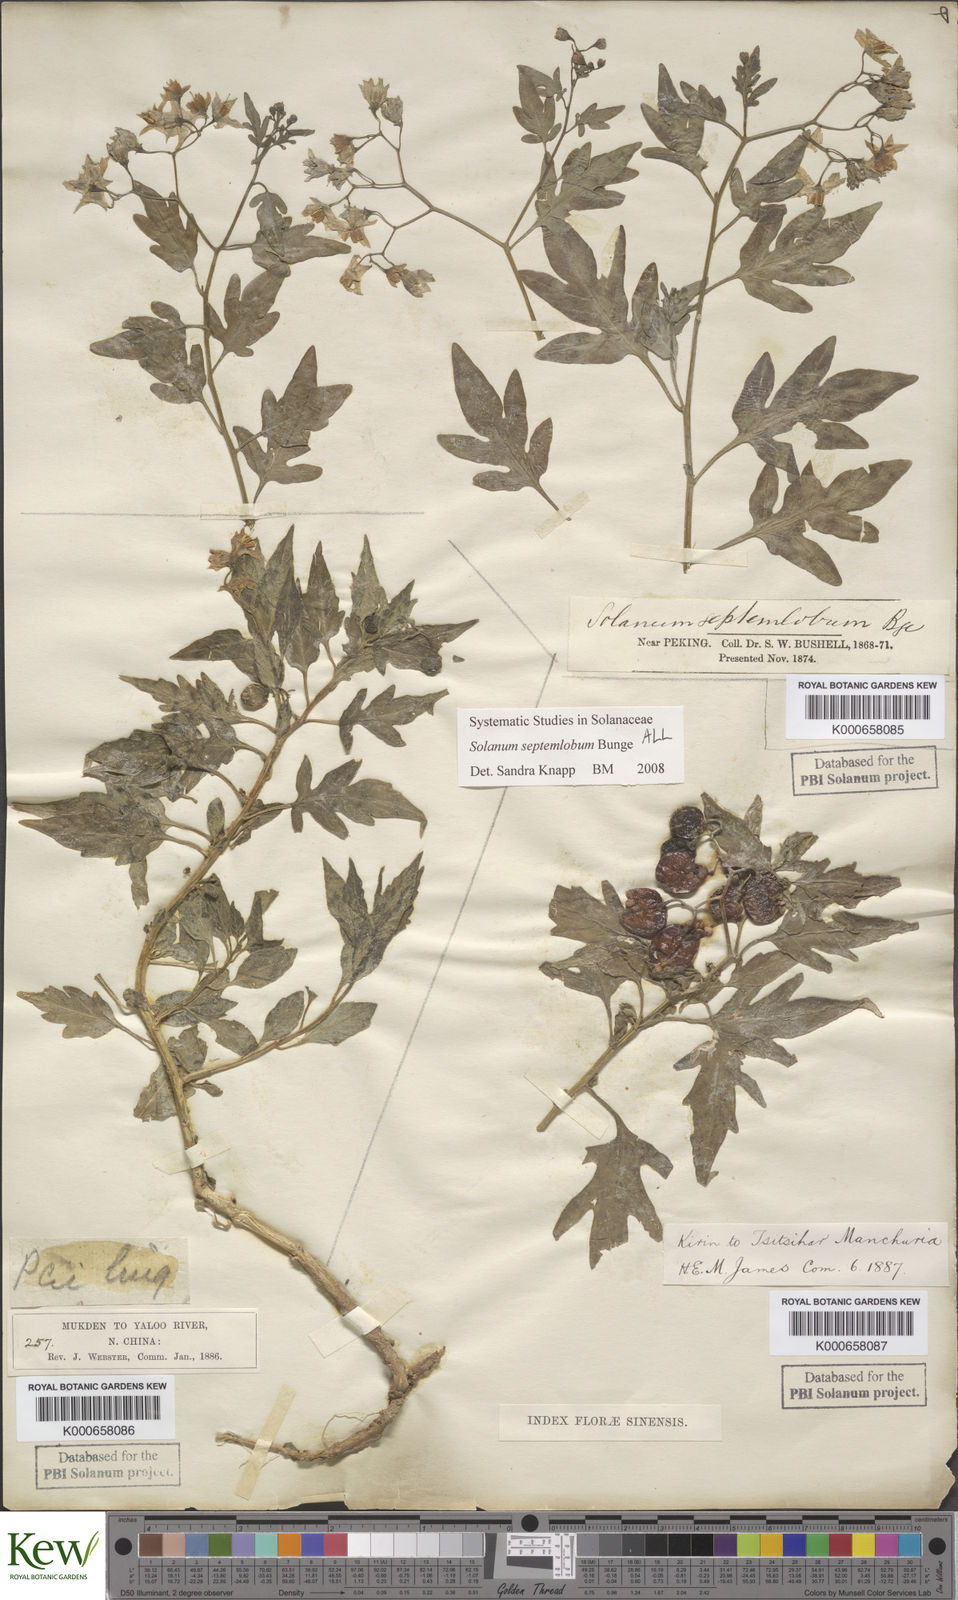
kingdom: Plantae
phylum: Tracheophyta
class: Magnoliopsida
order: Solanales
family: Solanaceae
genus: Solanum
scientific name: Solanum septemlobum
